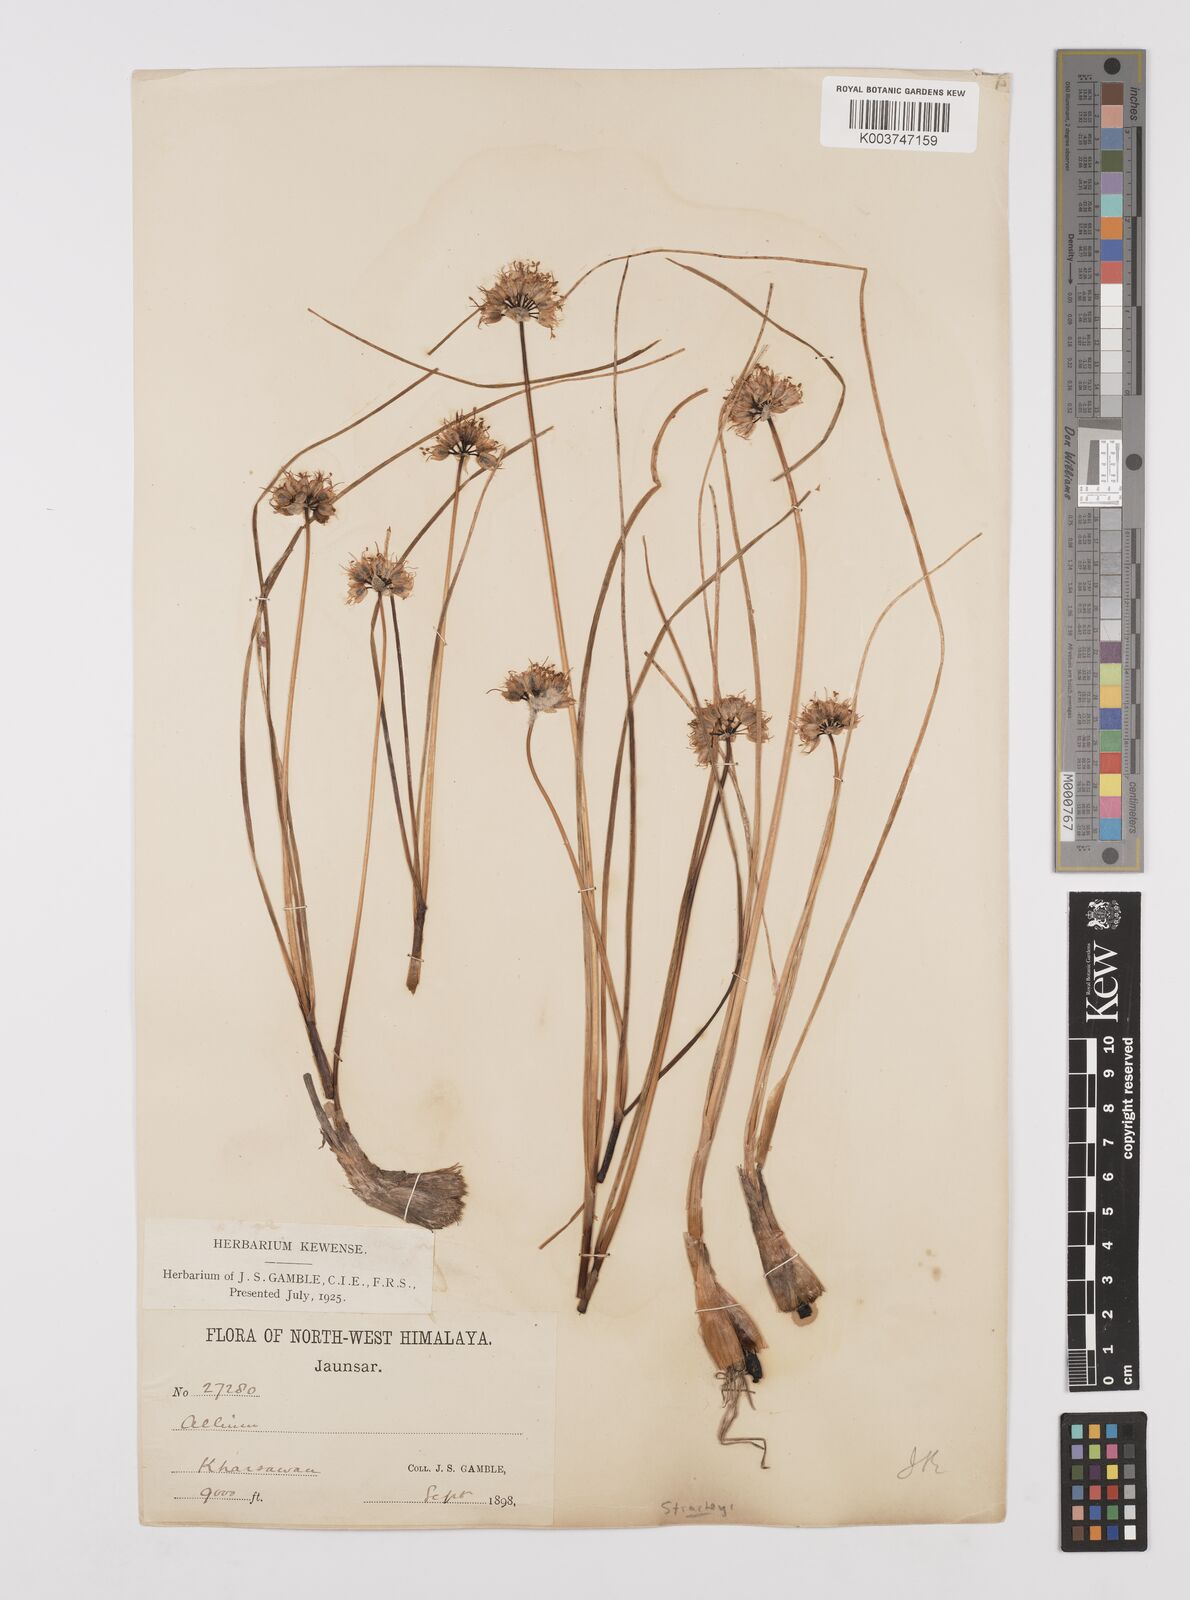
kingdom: Plantae
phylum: Tracheophyta
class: Liliopsida
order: Asparagales
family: Amaryllidaceae
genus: Allium
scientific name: Allium stracheyi
